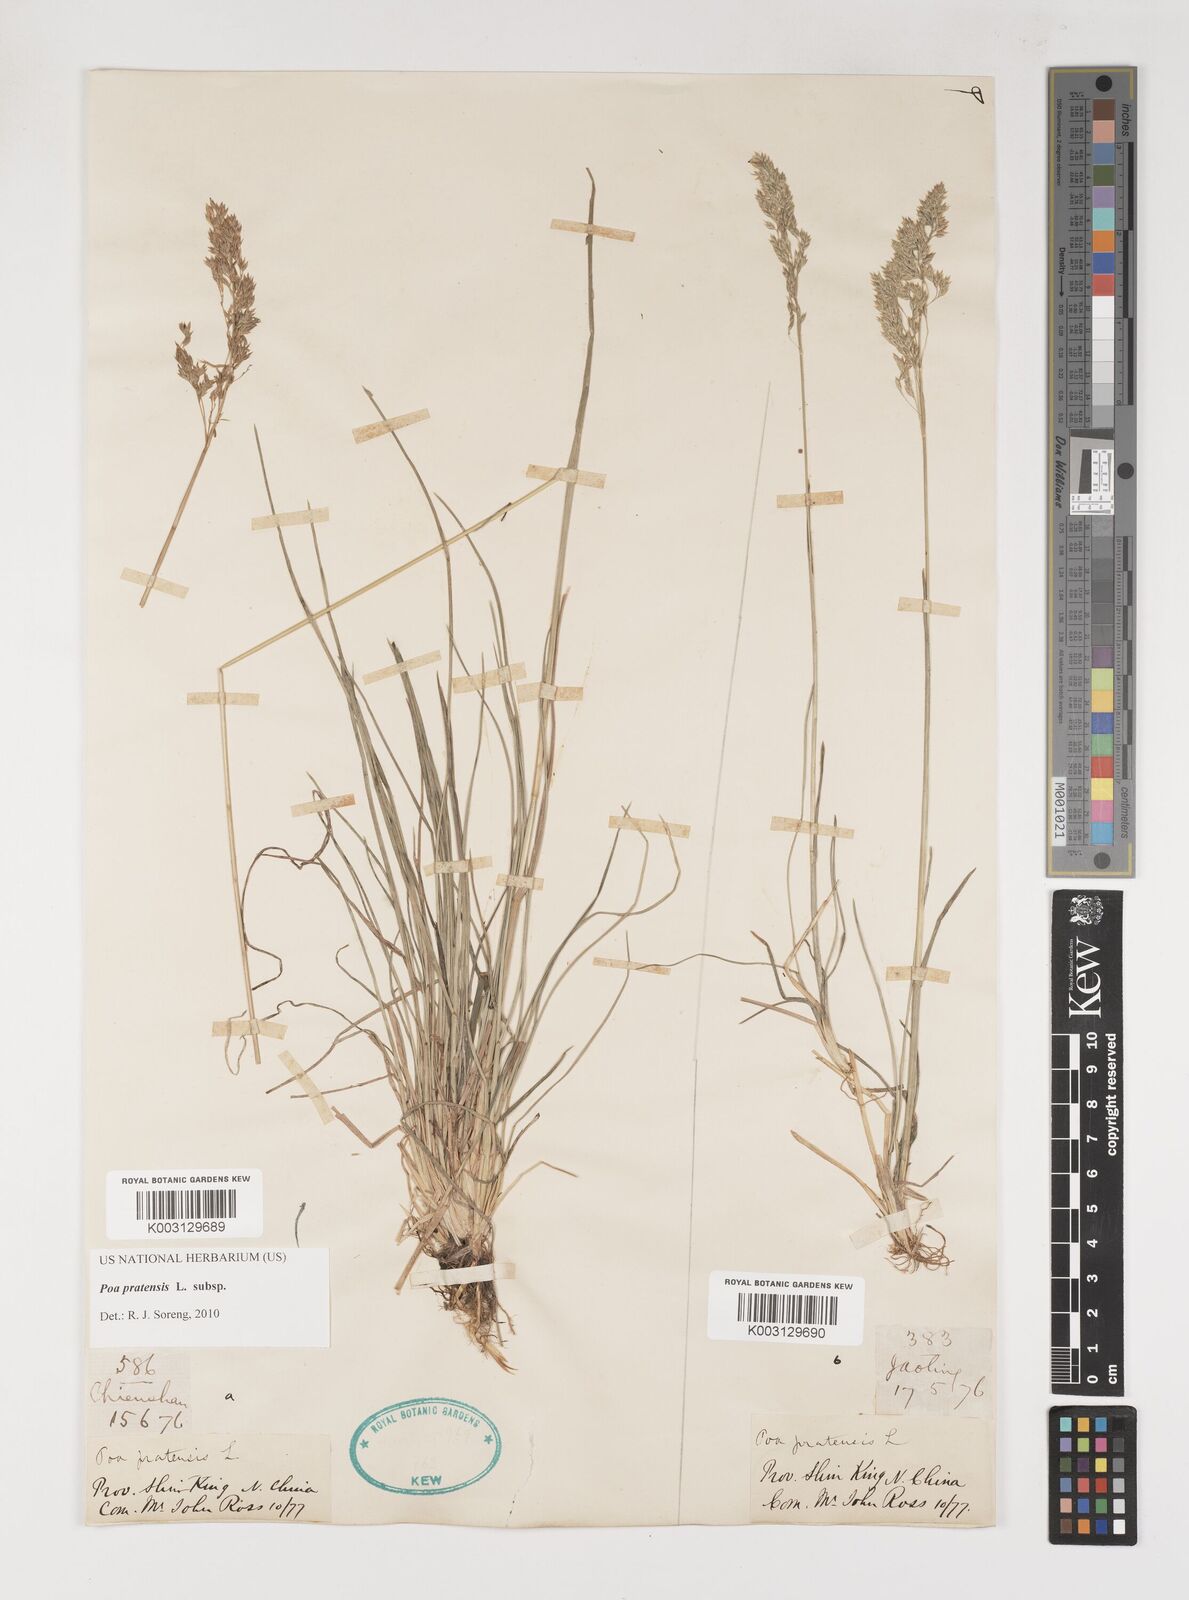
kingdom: Plantae
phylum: Tracheophyta
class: Liliopsida
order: Poales
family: Poaceae
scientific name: Poaceae
